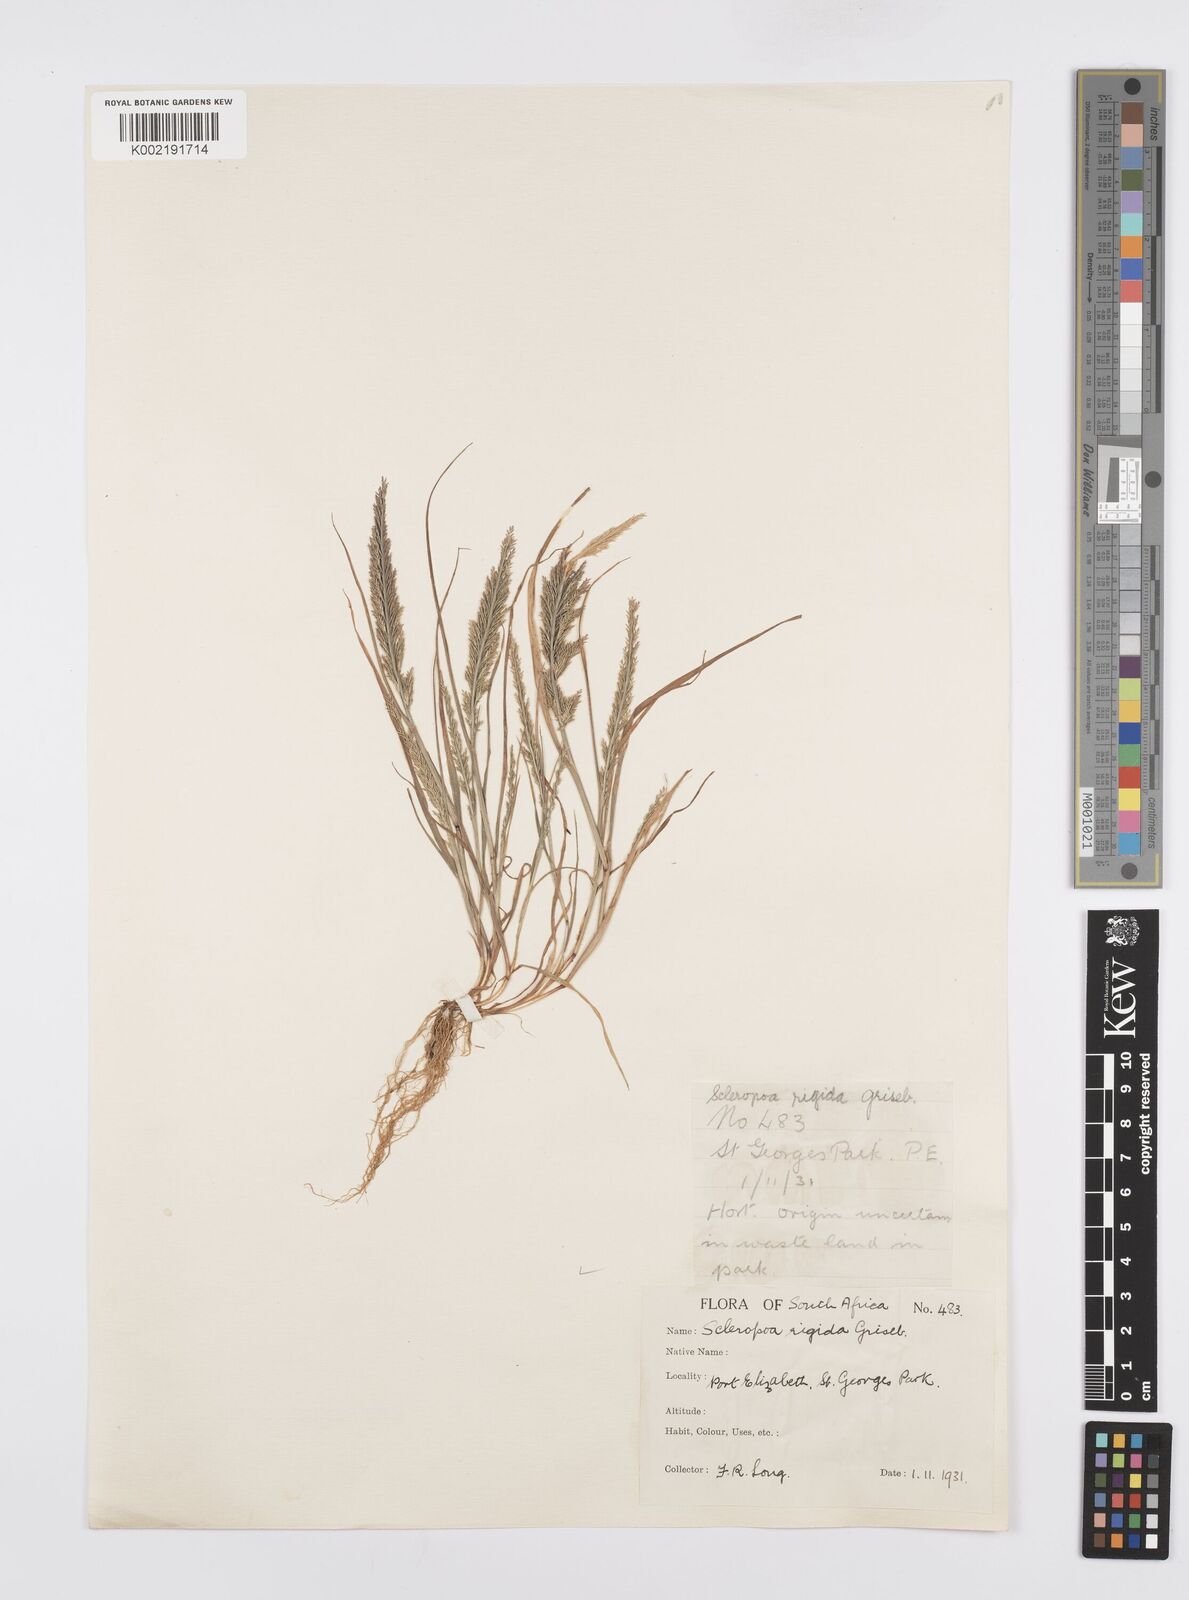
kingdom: Plantae
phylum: Tracheophyta
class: Liliopsida
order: Poales
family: Poaceae
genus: Catapodium
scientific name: Catapodium rigidum
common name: Fern-grass
